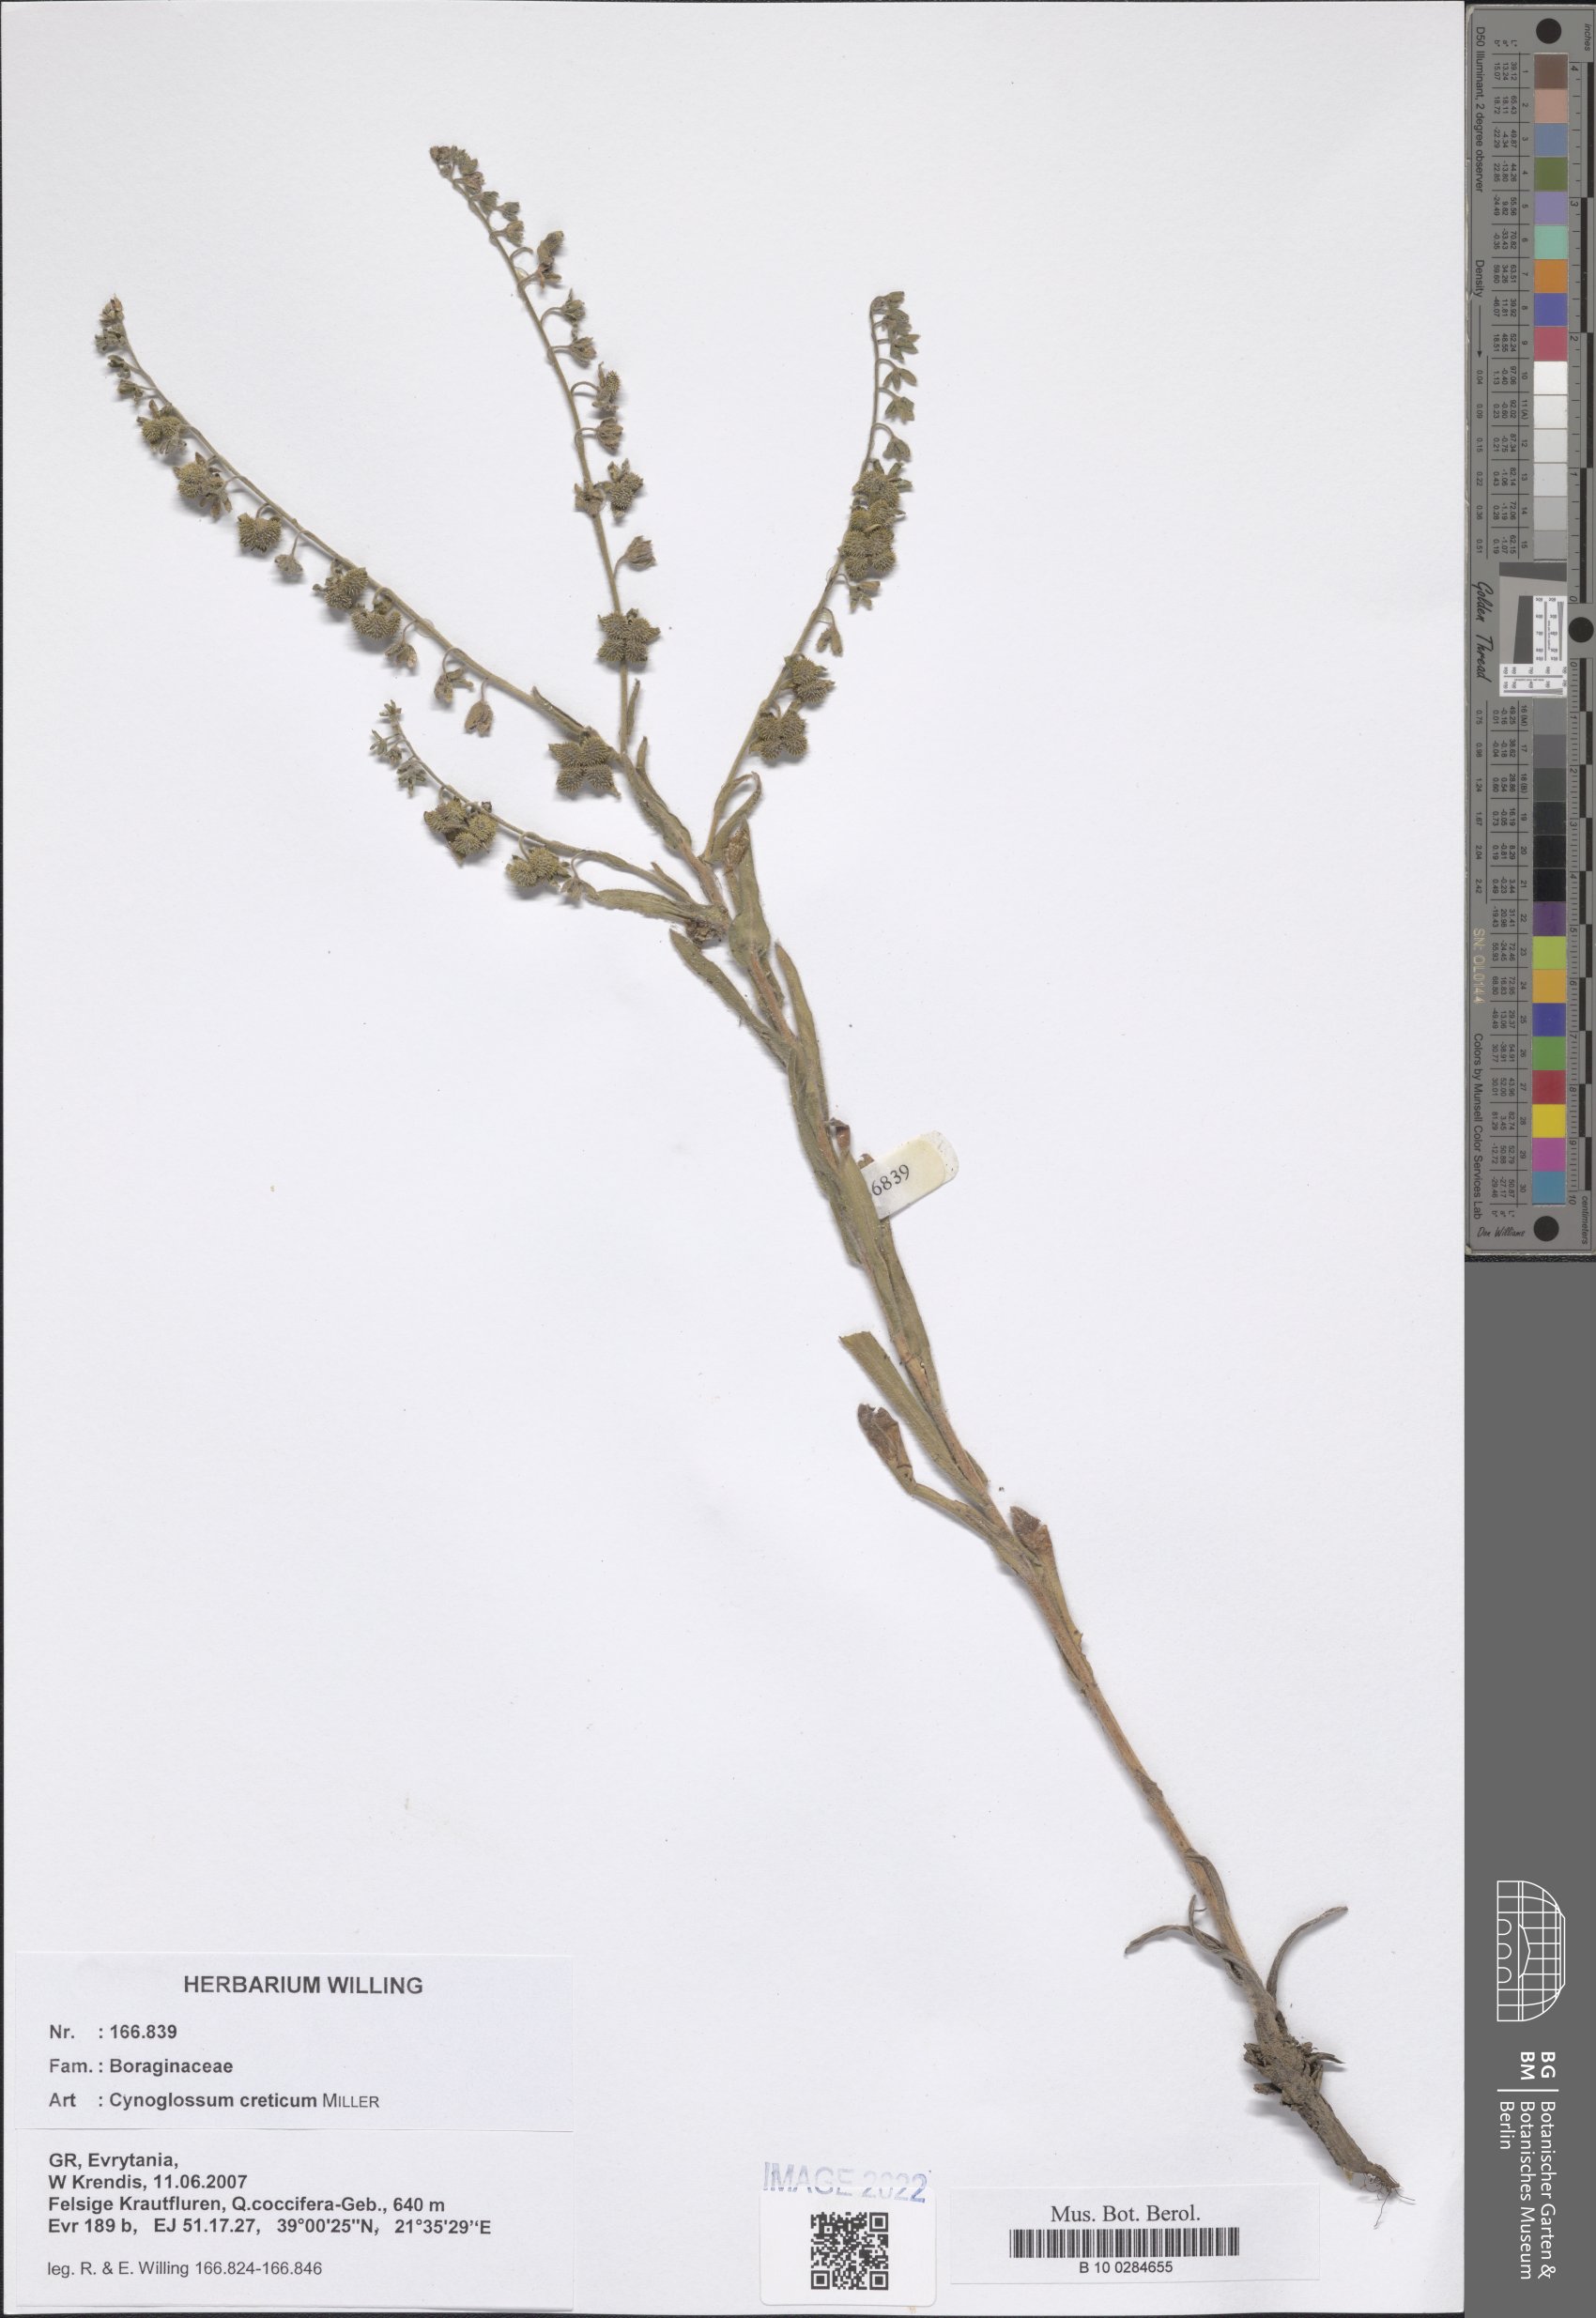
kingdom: Plantae
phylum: Tracheophyta
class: Magnoliopsida
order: Boraginales
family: Boraginaceae
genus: Cynoglossum
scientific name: Cynoglossum creticum
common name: Blue hound's tongue
